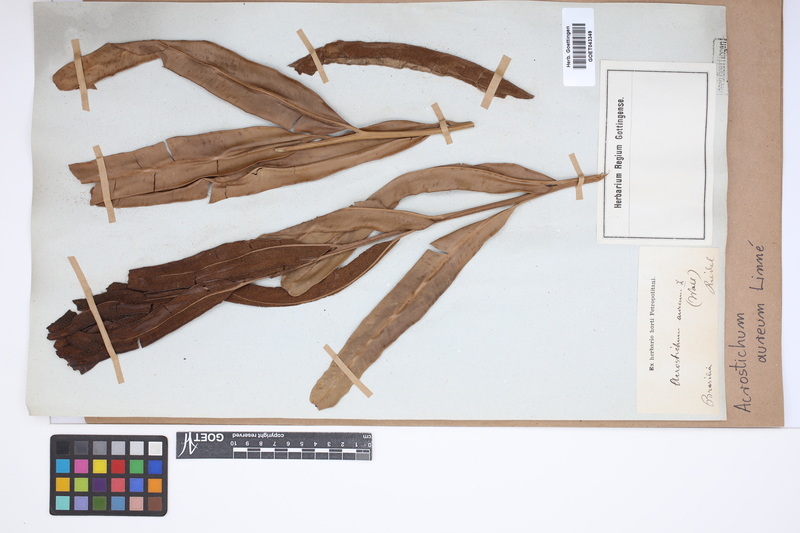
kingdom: Plantae
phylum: Tracheophyta
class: Polypodiopsida
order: Polypodiales
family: Pteridaceae
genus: Acrostichum
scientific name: Acrostichum aureum
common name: Leather fern
